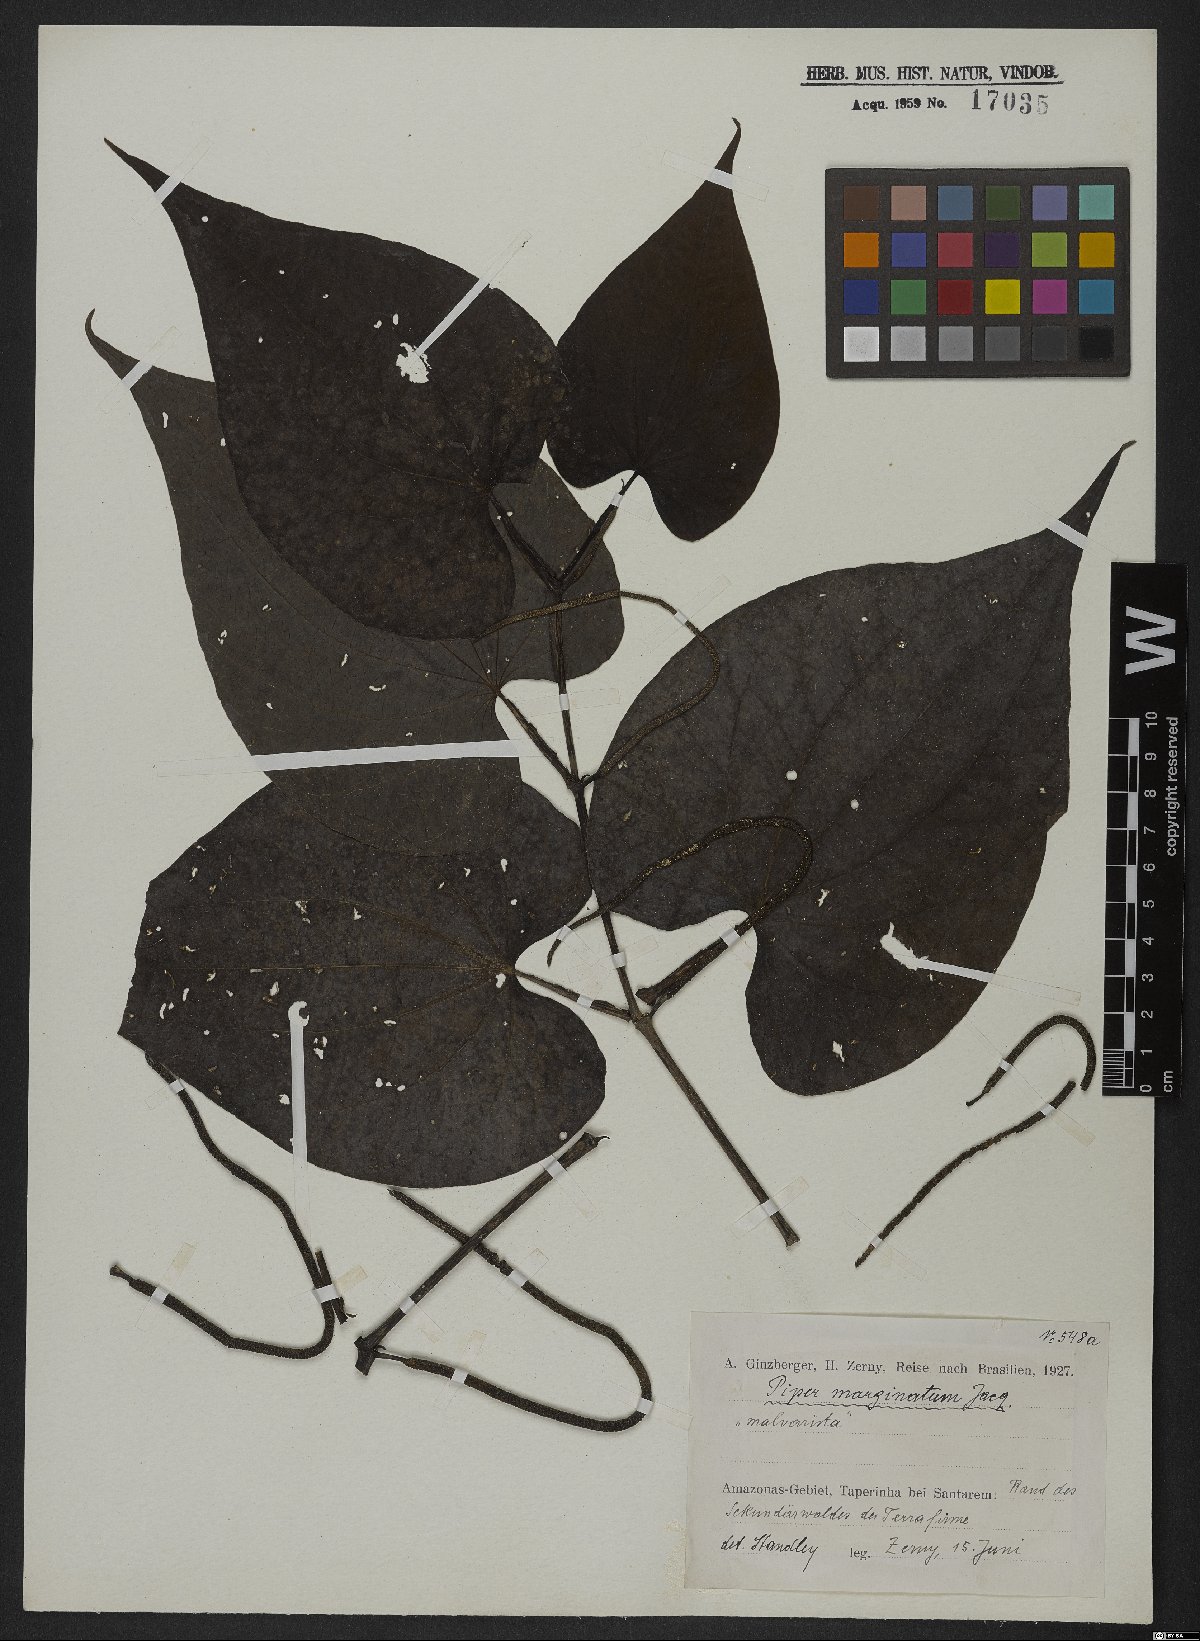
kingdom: Plantae
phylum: Tracheophyta
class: Magnoliopsida
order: Piperales
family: Piperaceae
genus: Piper
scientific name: Piper marginatum
